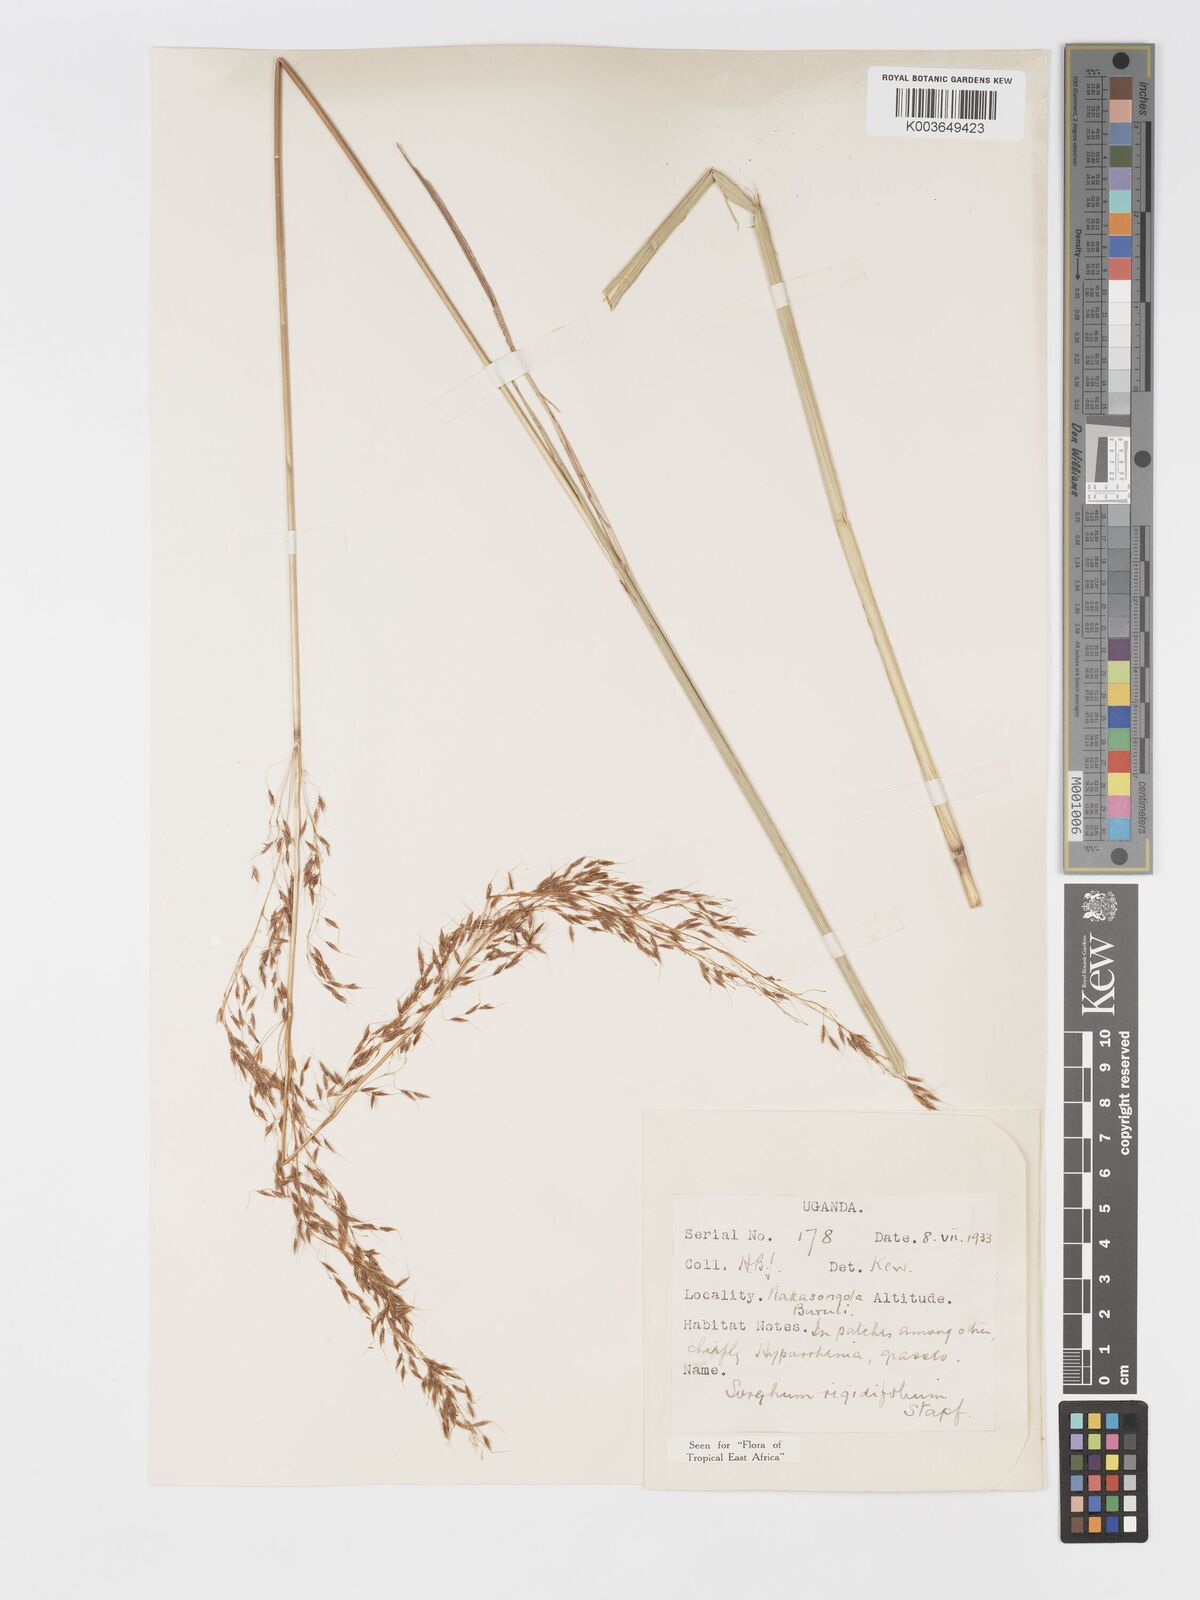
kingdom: Plantae
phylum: Tracheophyta
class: Liliopsida
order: Poales
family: Poaceae
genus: Sorghastrum
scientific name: Sorghastrum stipoides
